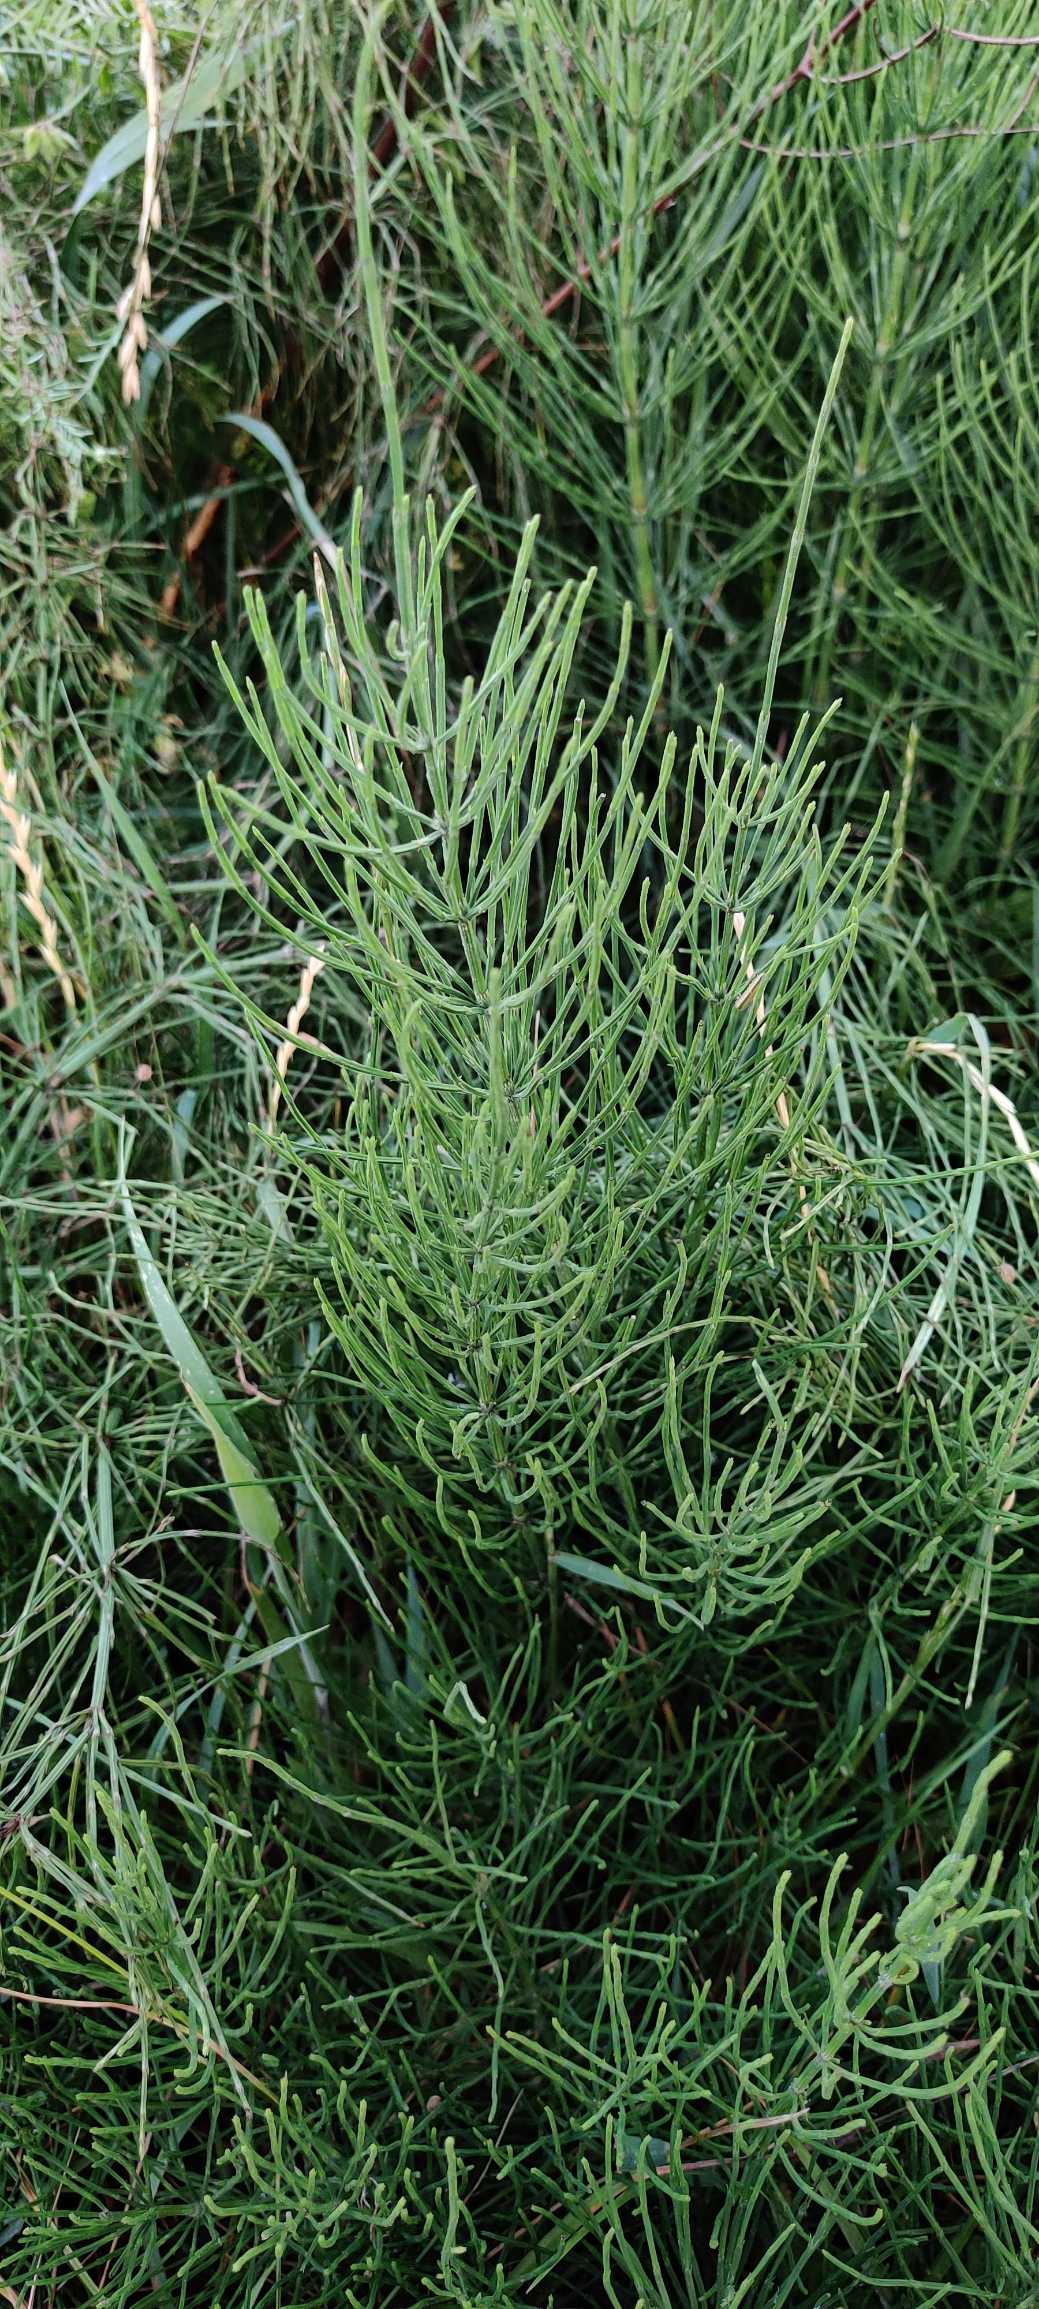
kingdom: Plantae
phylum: Tracheophyta
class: Polypodiopsida
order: Equisetales
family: Equisetaceae
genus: Equisetum
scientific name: Equisetum arvense
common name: Ager-padderok
